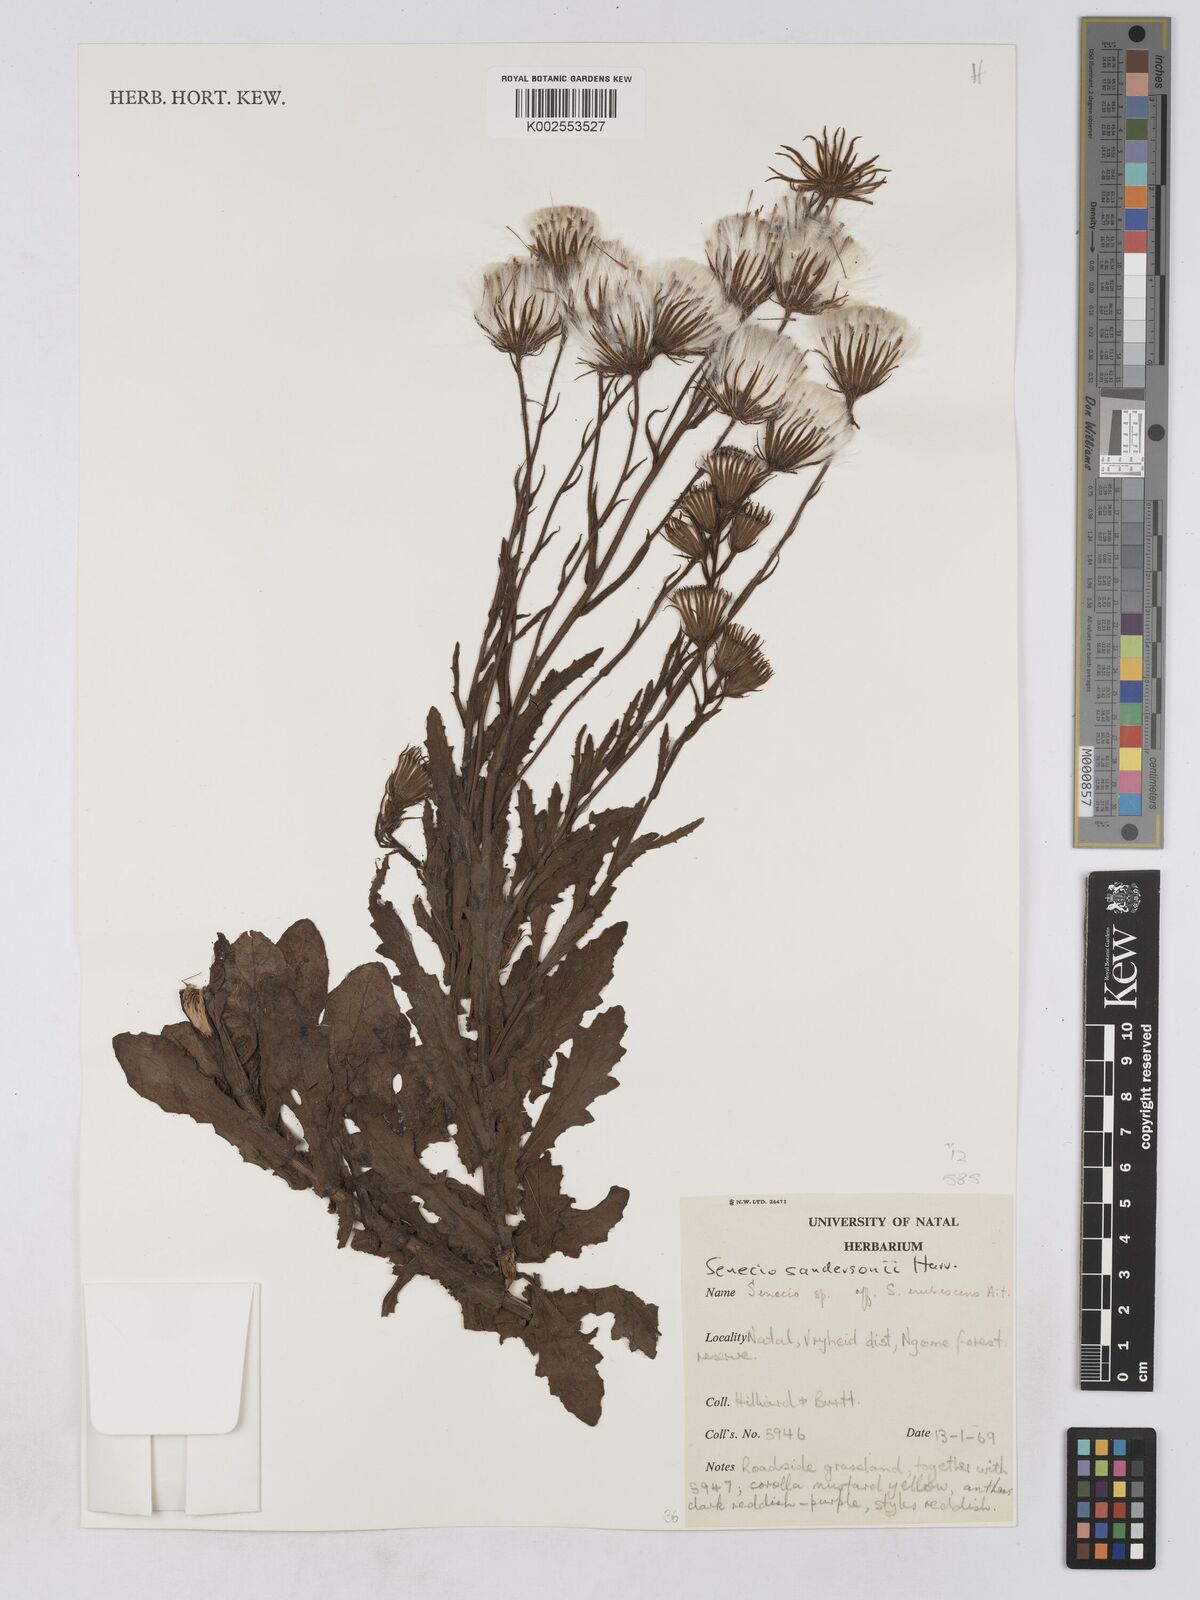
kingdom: Plantae
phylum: Tracheophyta
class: Magnoliopsida
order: Asterales
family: Asteraceae
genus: Senecio
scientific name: Senecio sandersonii
